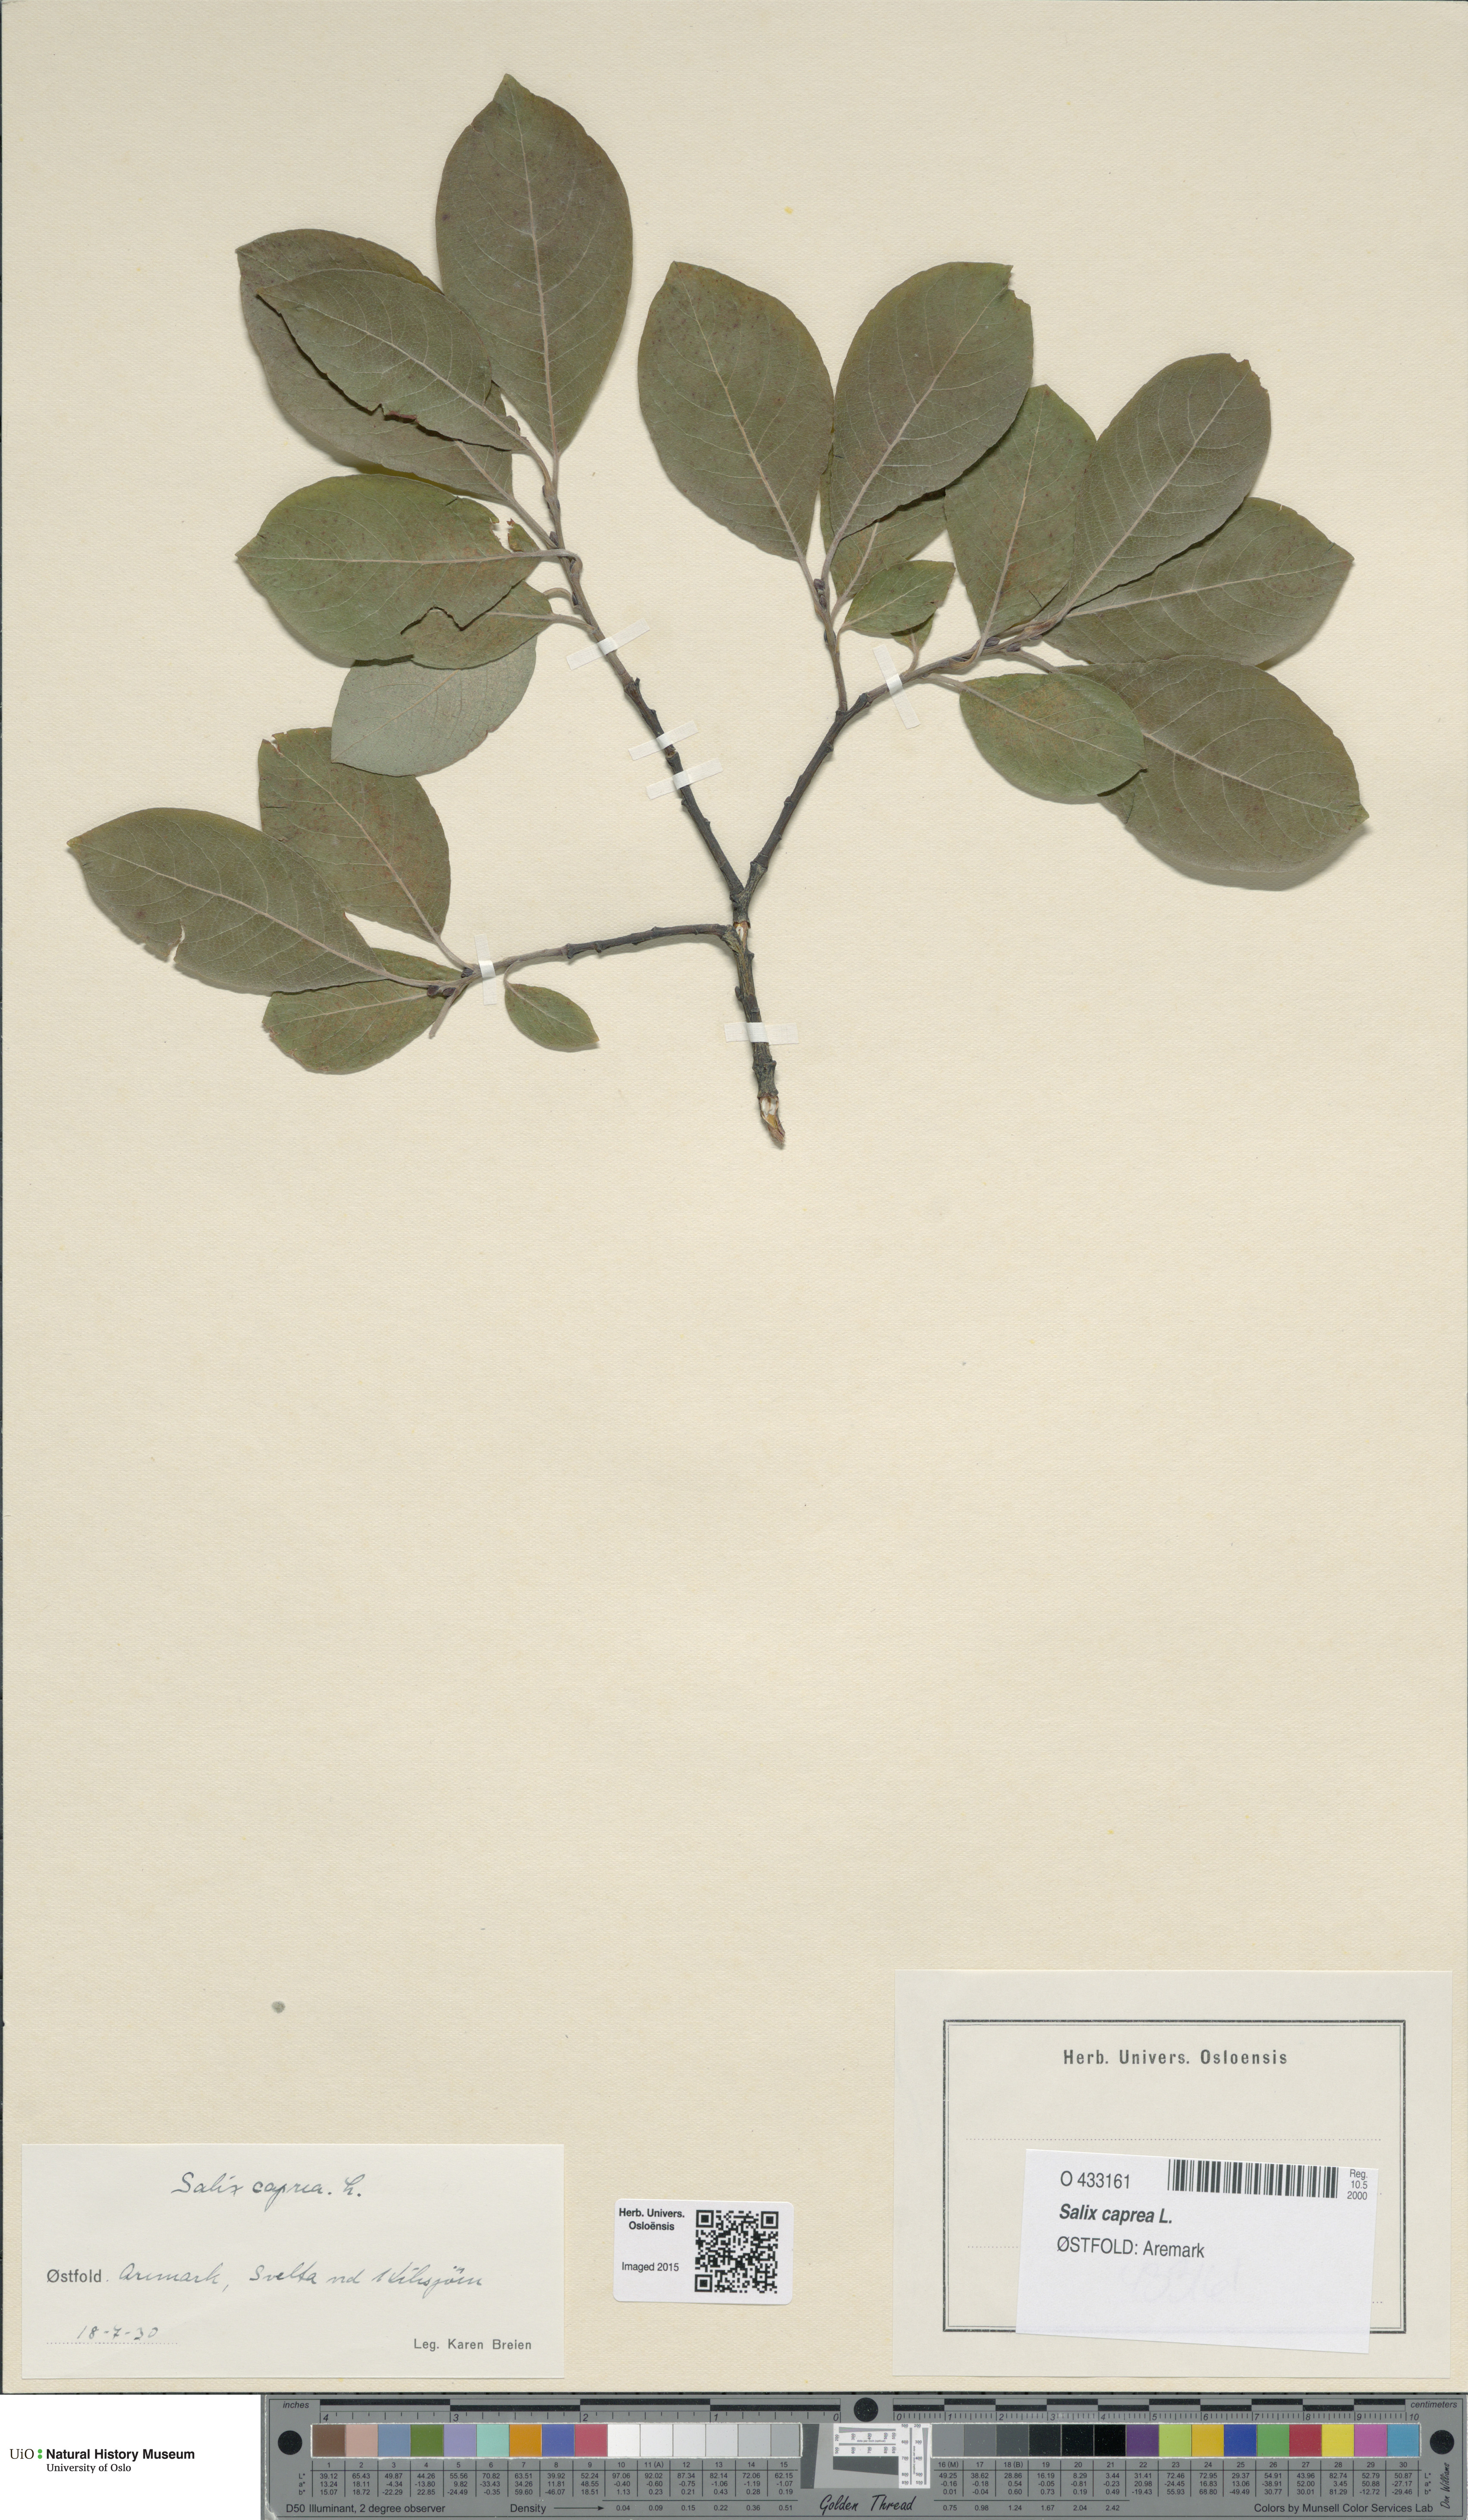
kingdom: Plantae
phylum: Tracheophyta
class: Magnoliopsida
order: Malpighiales
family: Salicaceae
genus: Salix
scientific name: Salix caprea
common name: Goat willow
